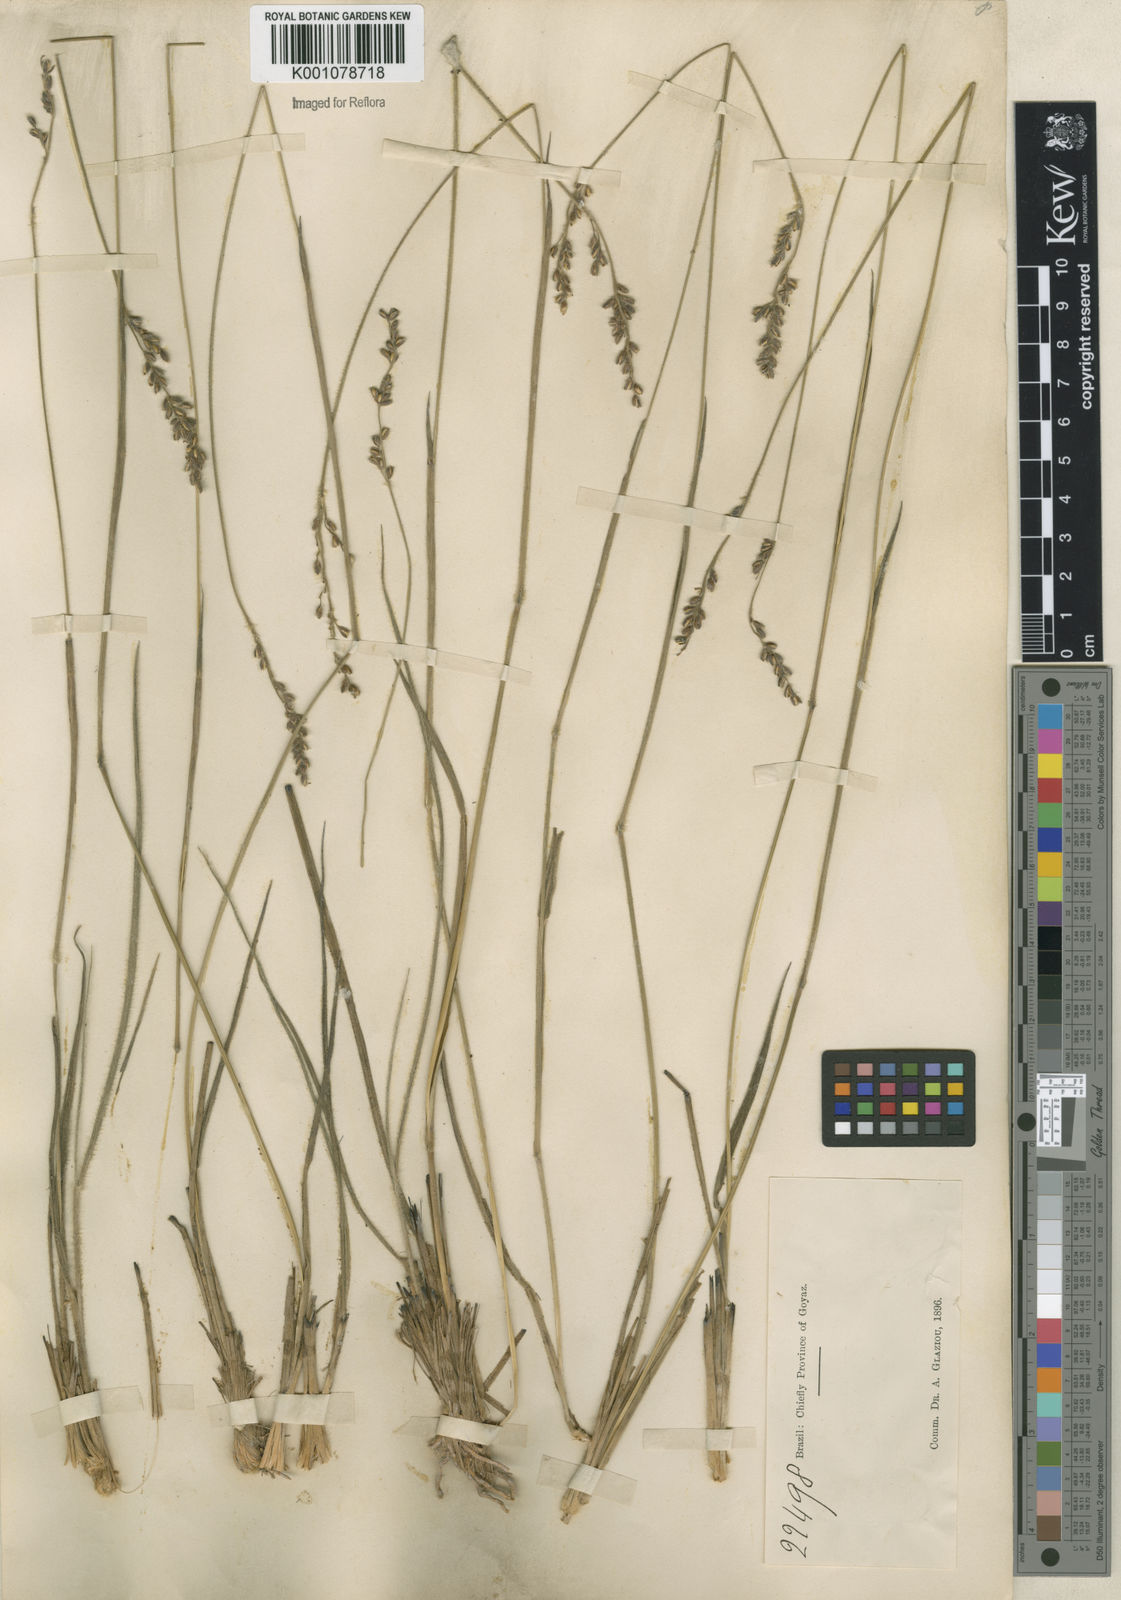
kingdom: Plantae
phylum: Tracheophyta
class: Liliopsida
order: Poales
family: Poaceae
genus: Anthaenantiopsis
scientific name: Anthaenantiopsis perforata
